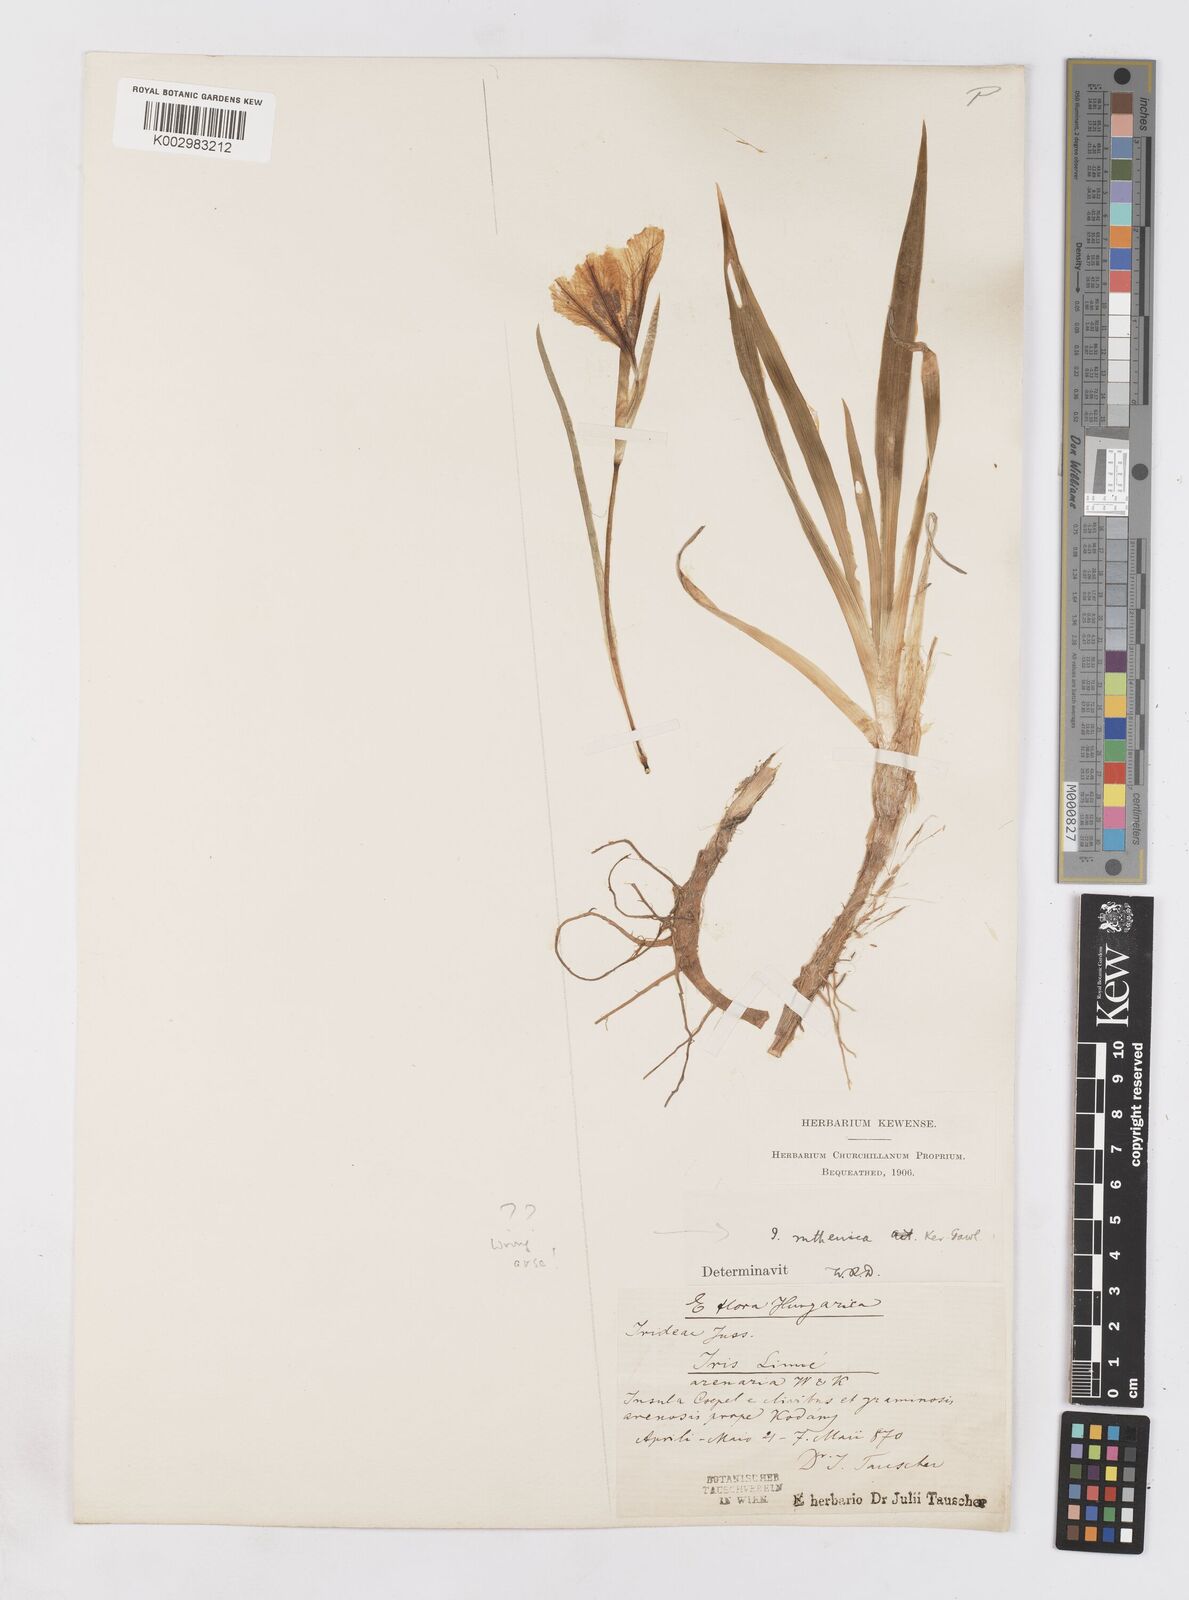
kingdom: Plantae
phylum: Tracheophyta
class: Liliopsida
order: Asparagales
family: Iridaceae
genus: Iris
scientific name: Iris ruthenica
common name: Purple-bract iris
